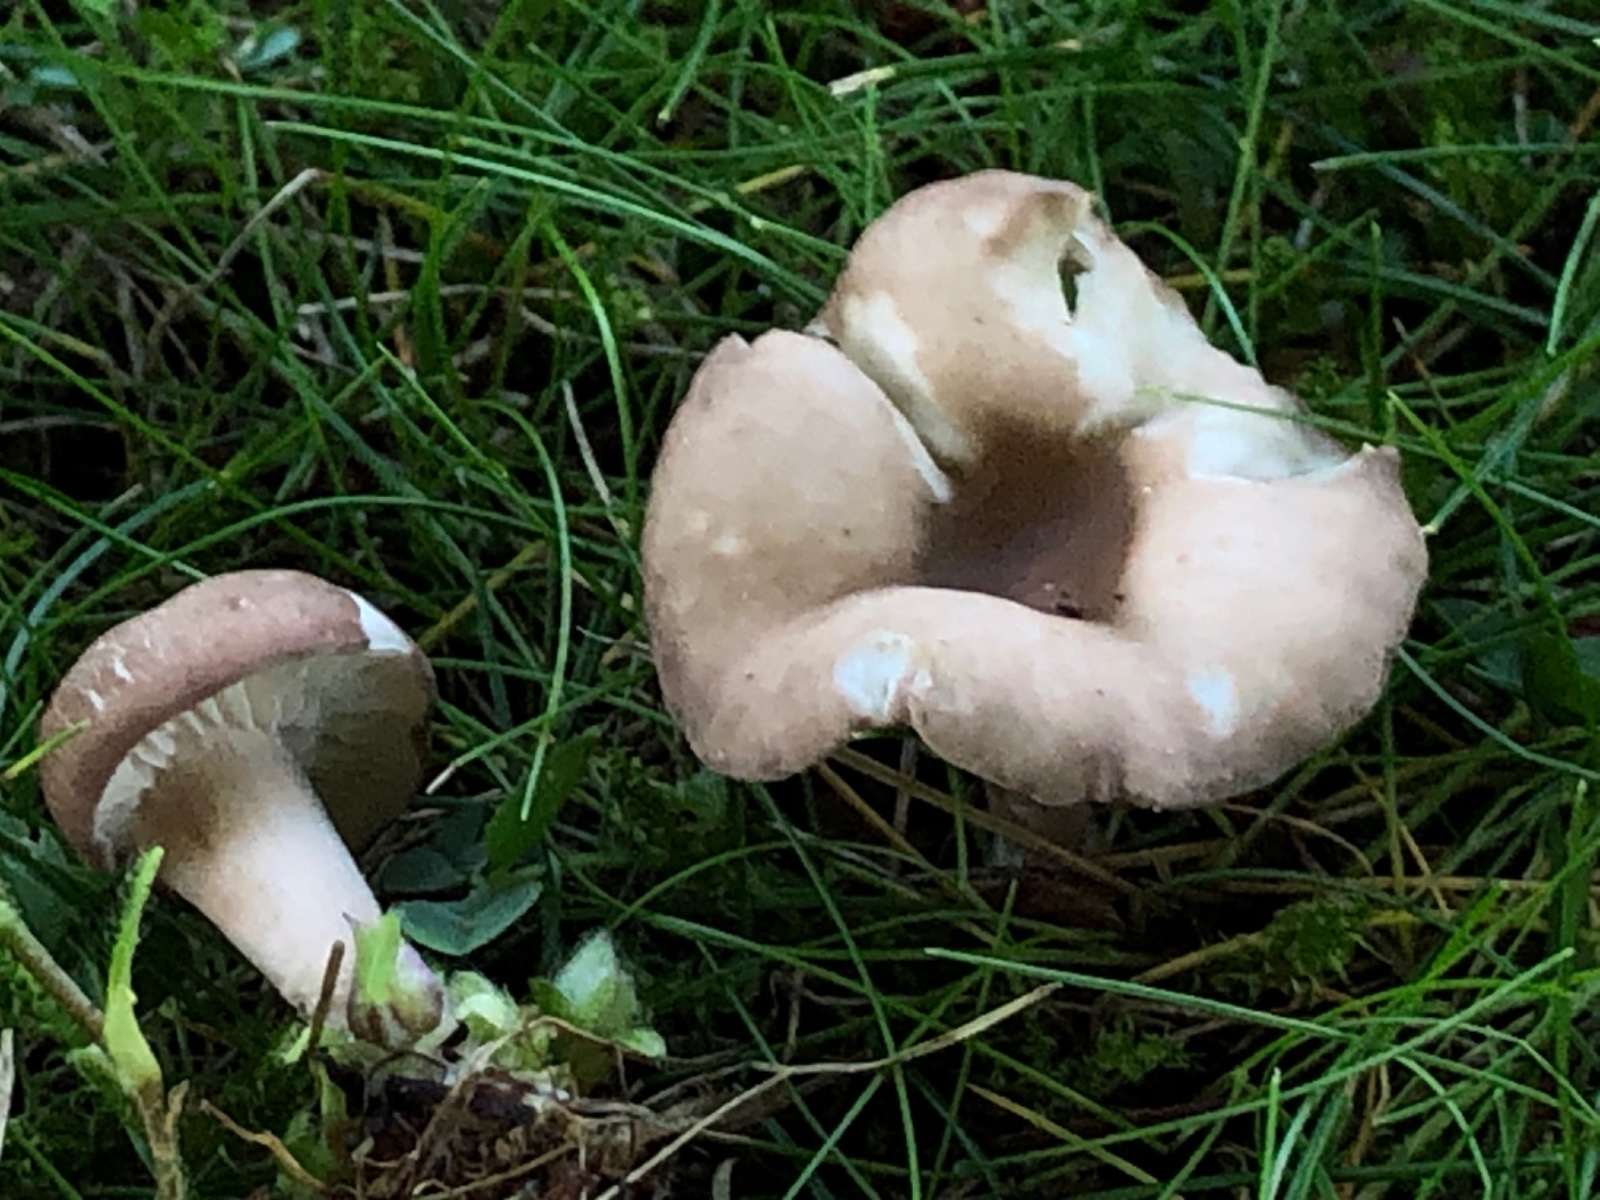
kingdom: Fungi
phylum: Basidiomycota
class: Agaricomycetes
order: Agaricales
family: Lyophyllaceae
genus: Calocybe
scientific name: Calocybe carnea
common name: rosa fagerhat
